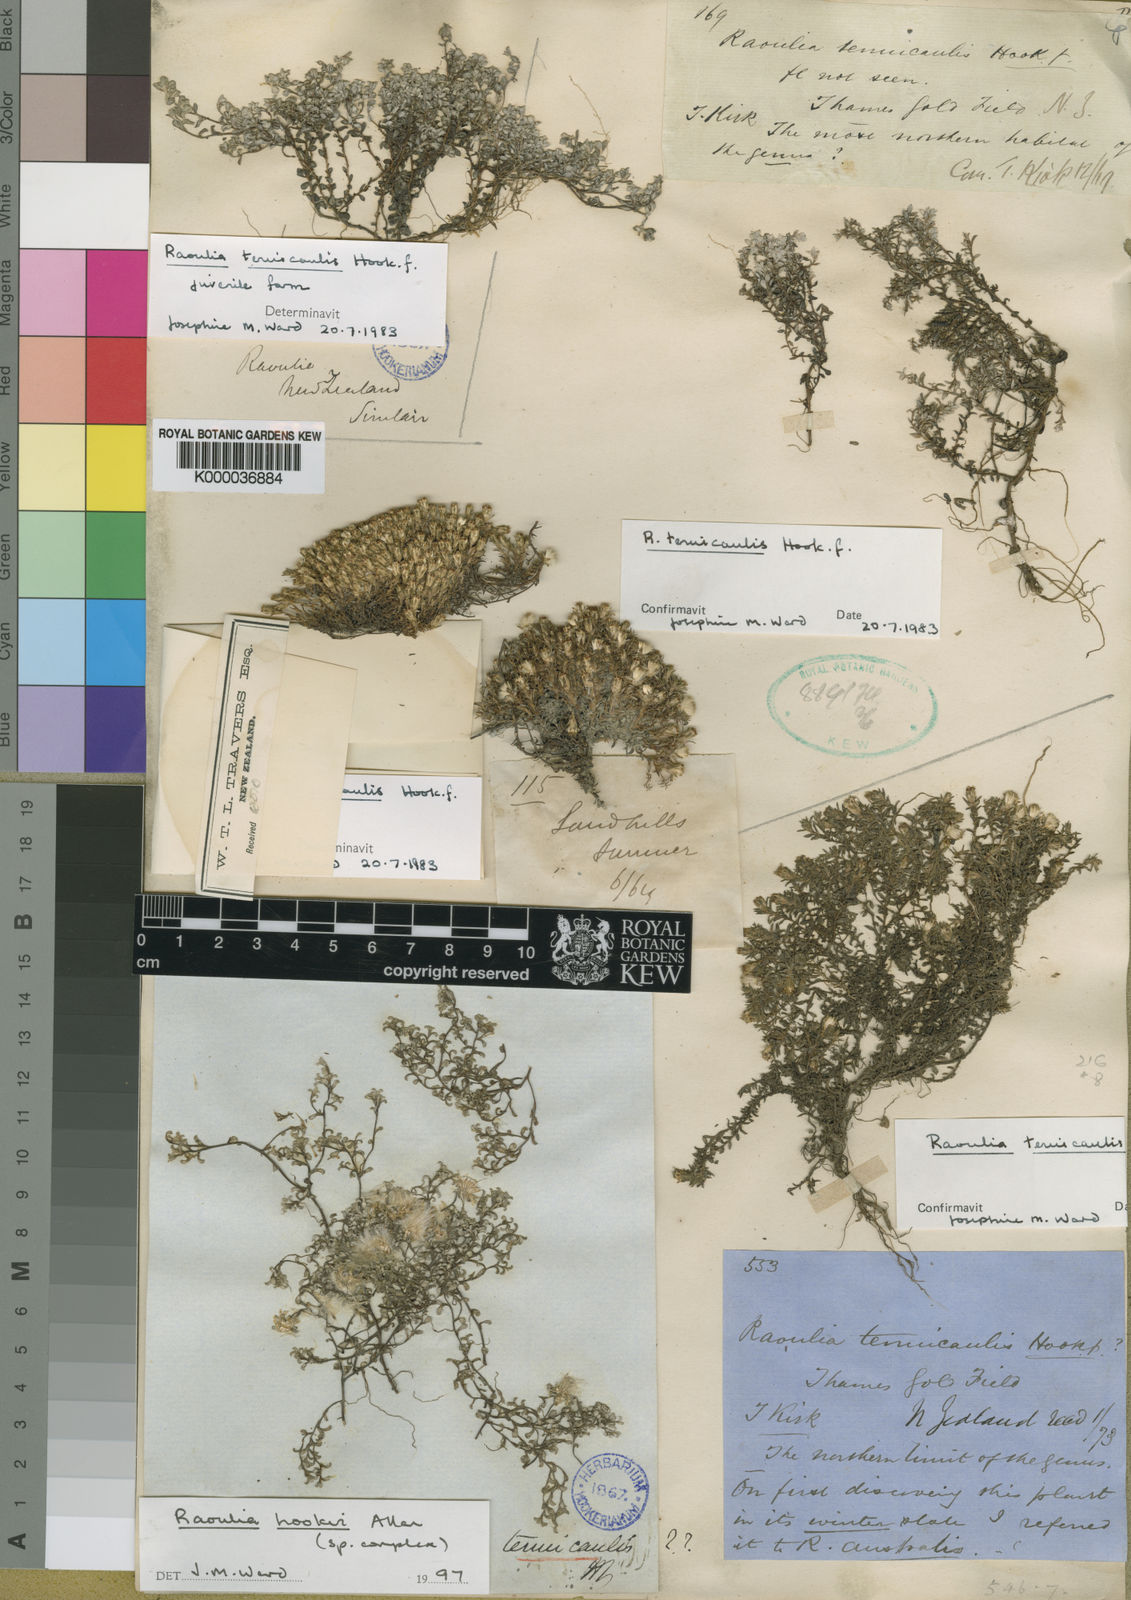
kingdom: Plantae
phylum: Tracheophyta
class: Magnoliopsida
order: Asterales
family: Asteraceae
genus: Raoulia
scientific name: Raoulia tenuicaulis
